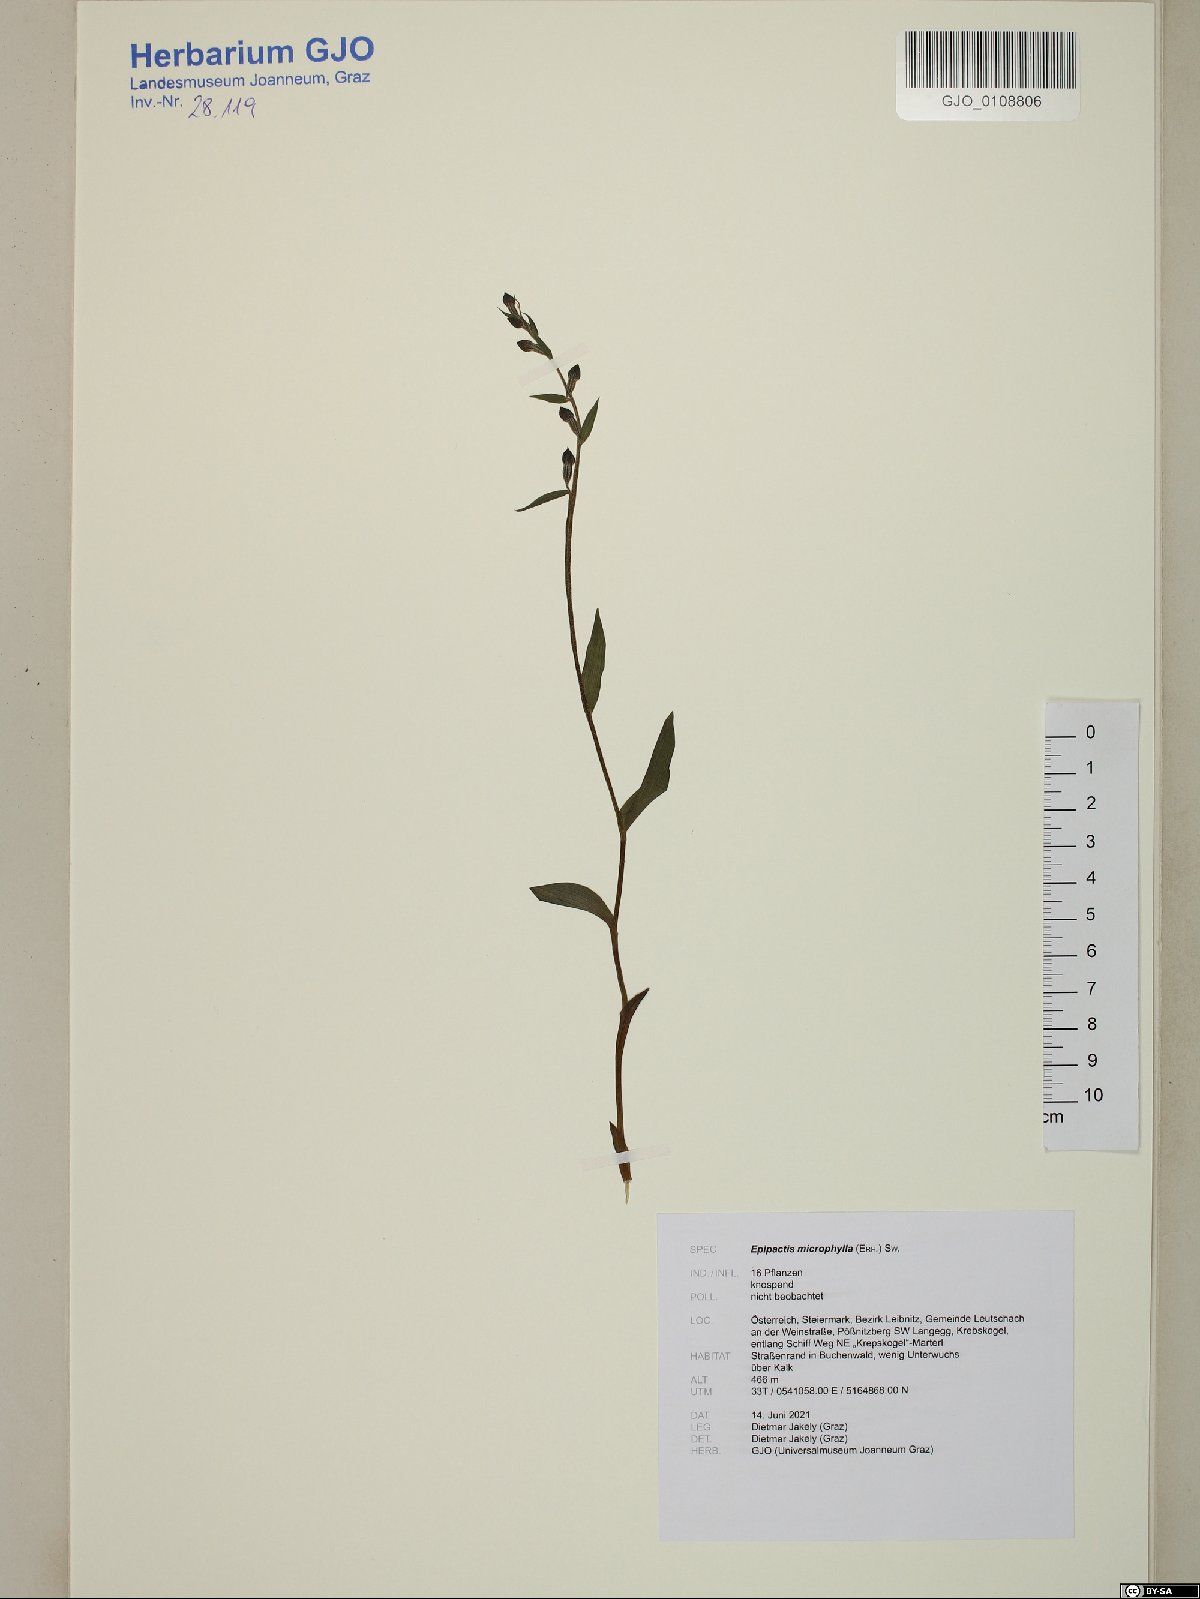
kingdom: Plantae
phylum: Tracheophyta
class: Liliopsida
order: Asparagales
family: Orchidaceae
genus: Epipactis
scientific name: Epipactis microphylla
